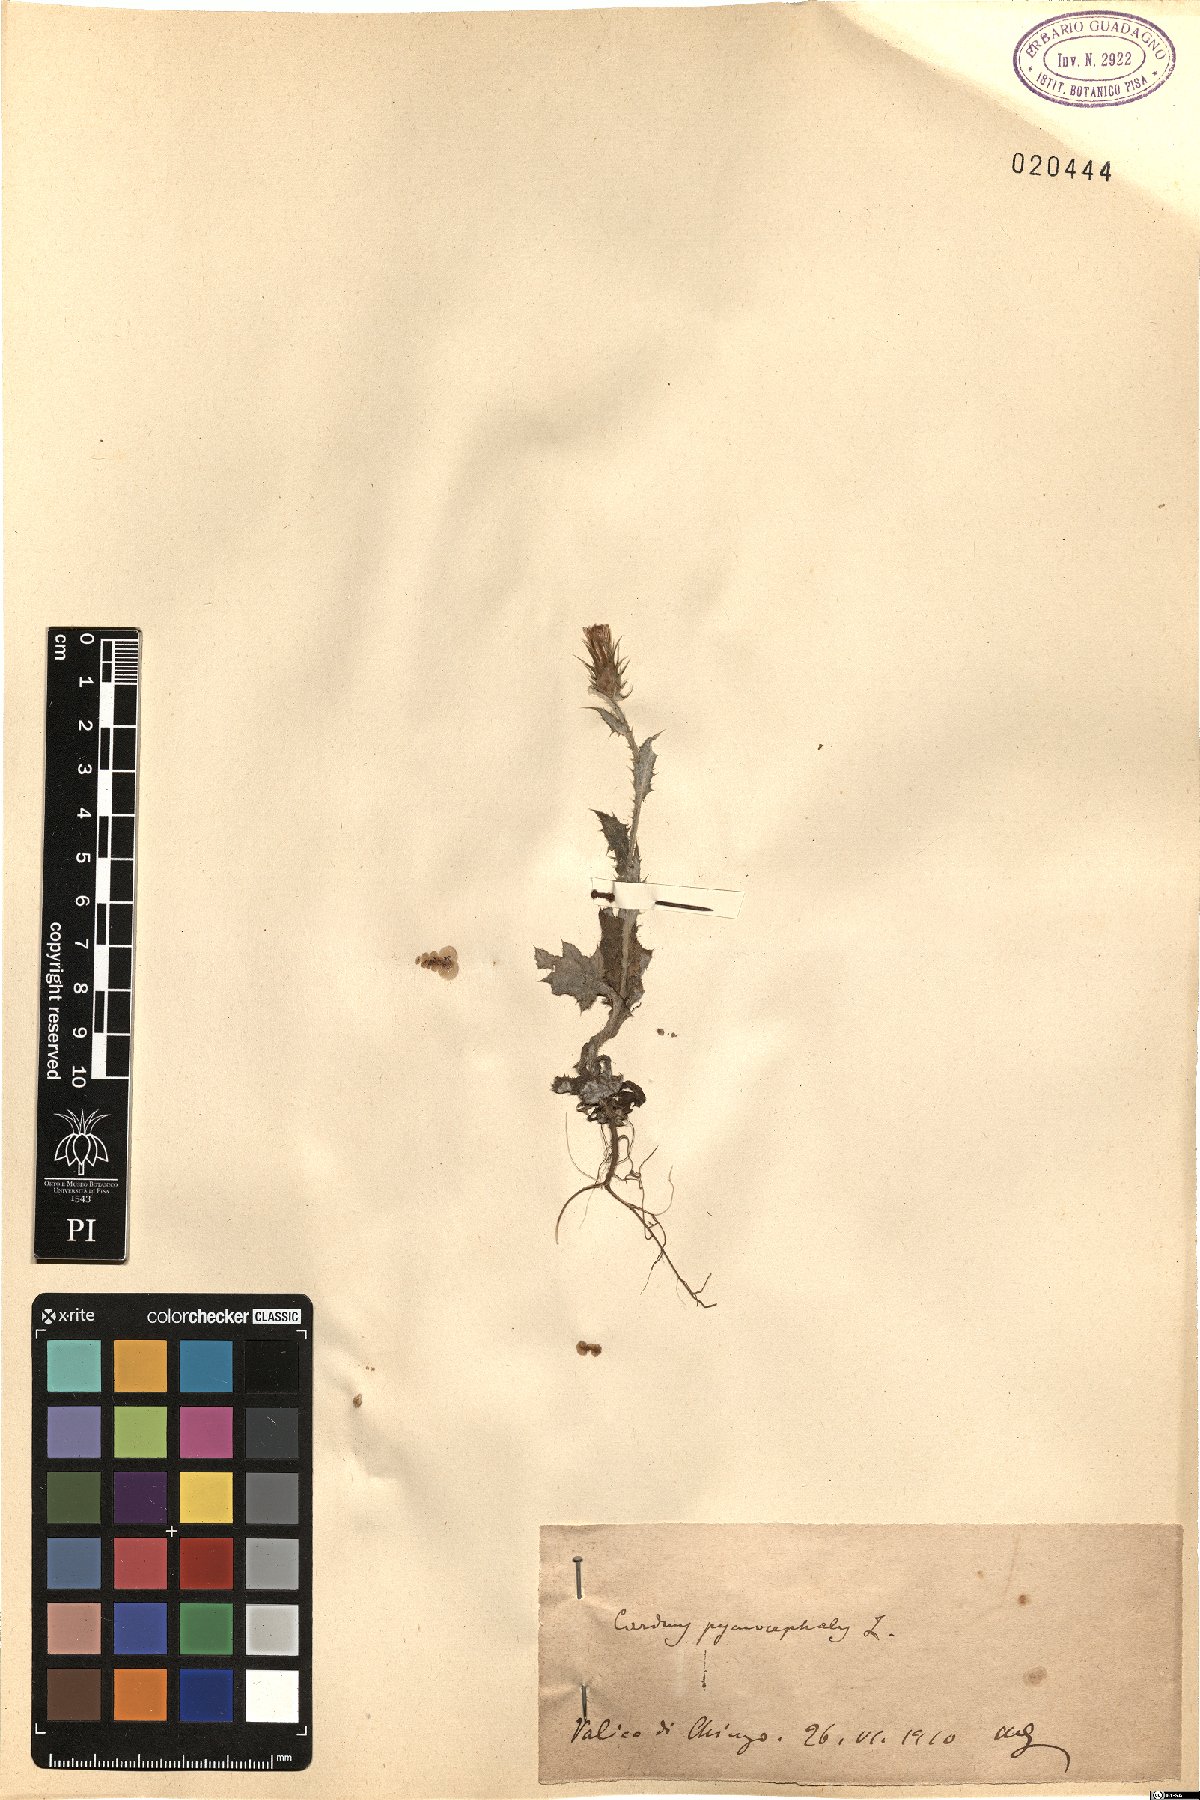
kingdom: Plantae
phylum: Tracheophyta
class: Magnoliopsida
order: Asterales
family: Asteraceae
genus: Carduus
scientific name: Carduus pycnocephalus
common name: Plymouth thistle
